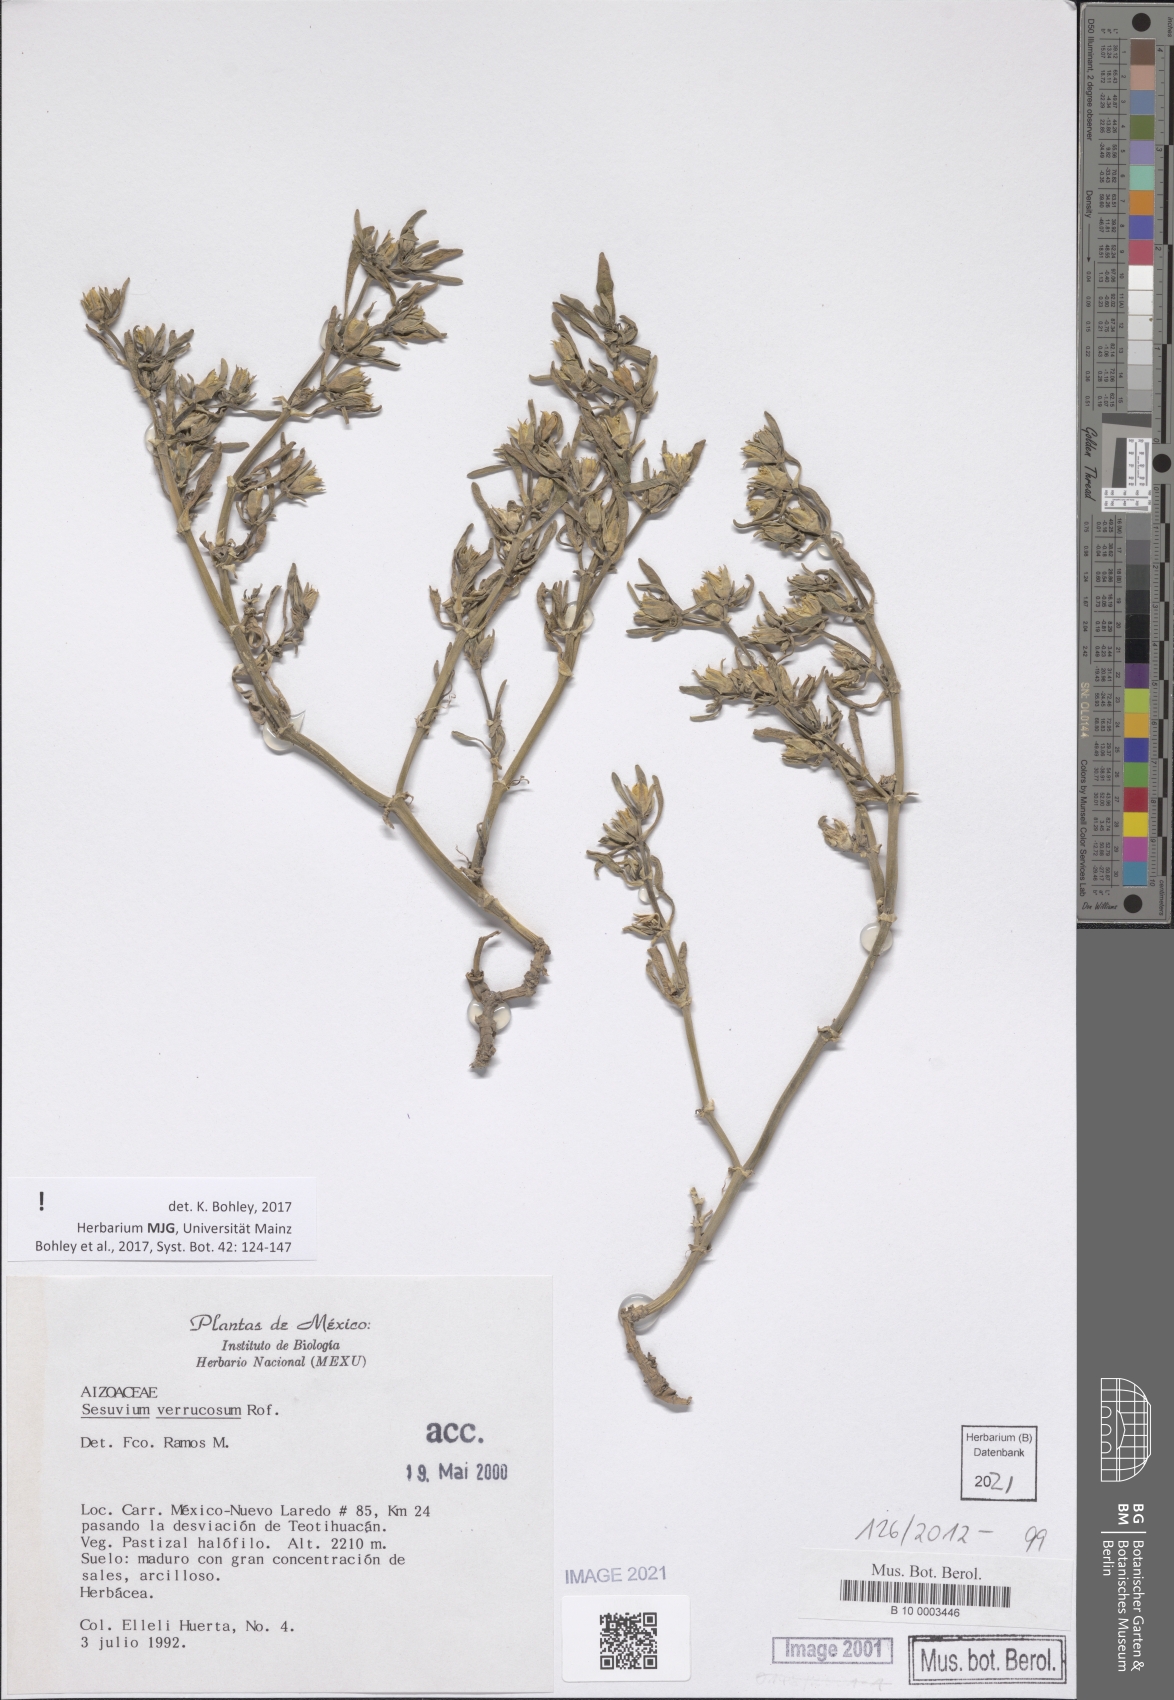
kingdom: Plantae
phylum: Tracheophyta
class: Magnoliopsida
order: Caryophyllales
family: Aizoaceae
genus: Sesuvium
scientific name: Sesuvium revolutifolium
